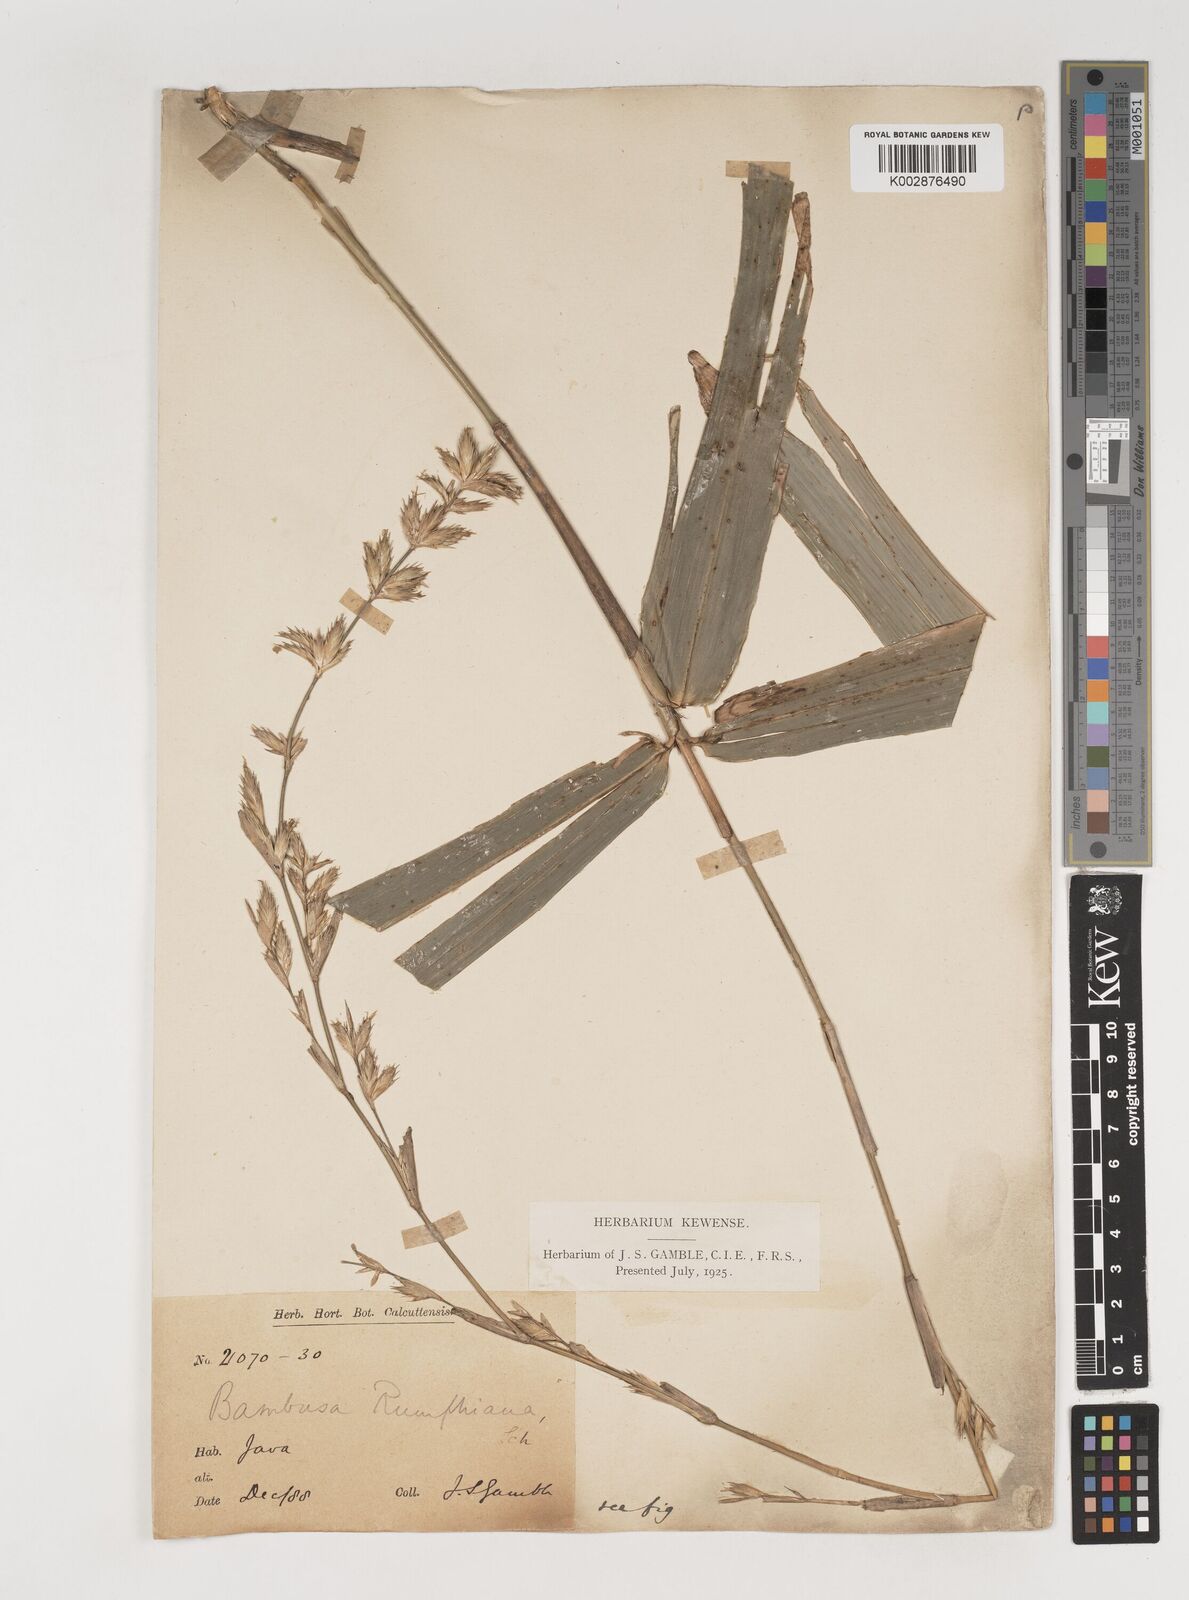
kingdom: Plantae
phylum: Tracheophyta
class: Liliopsida
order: Poales
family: Poaceae
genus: Neololeba
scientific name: Neololeba amahussana
